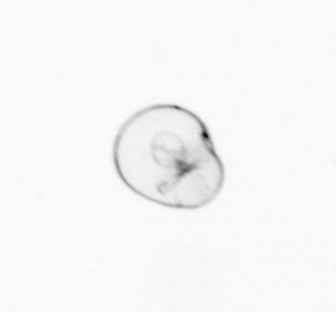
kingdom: Chromista
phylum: Myzozoa
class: Dinophyceae
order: Noctilucales
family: Noctilucaceae
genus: Noctiluca
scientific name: Noctiluca scintillans
